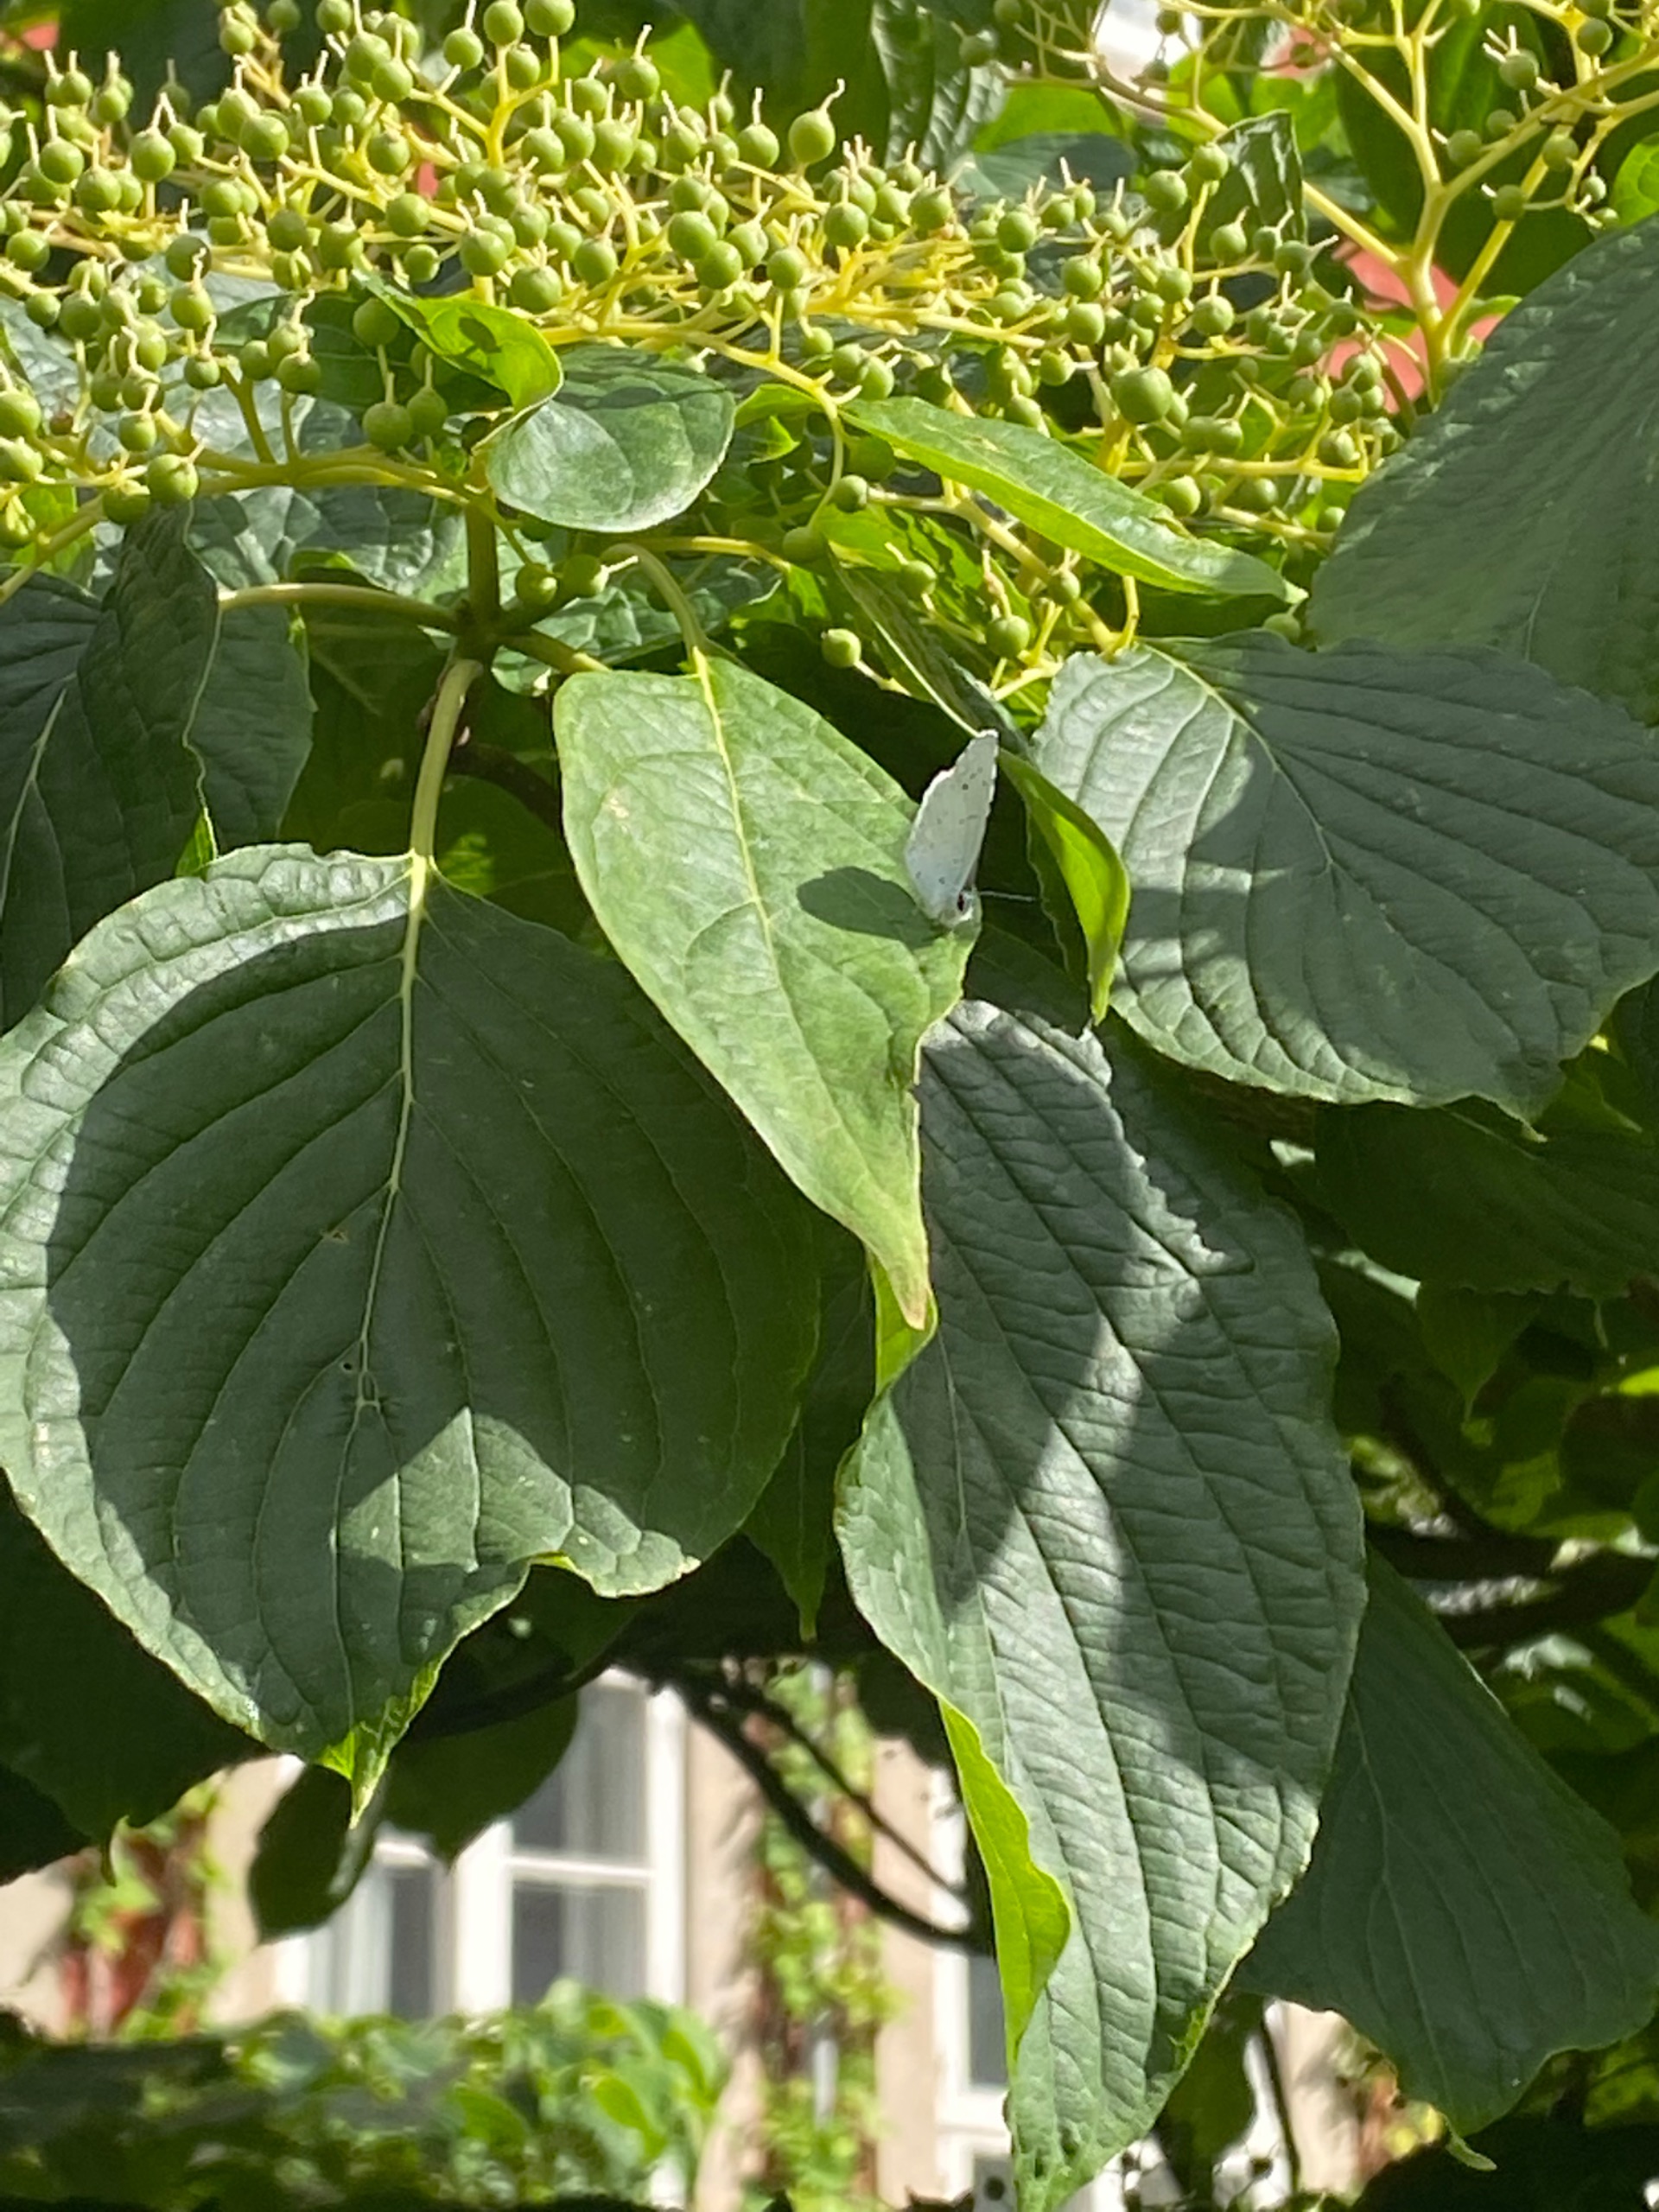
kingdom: Animalia
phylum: Arthropoda
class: Insecta
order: Lepidoptera
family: Lycaenidae
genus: Celastrina
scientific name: Celastrina argiolus
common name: Skovblåfugl
